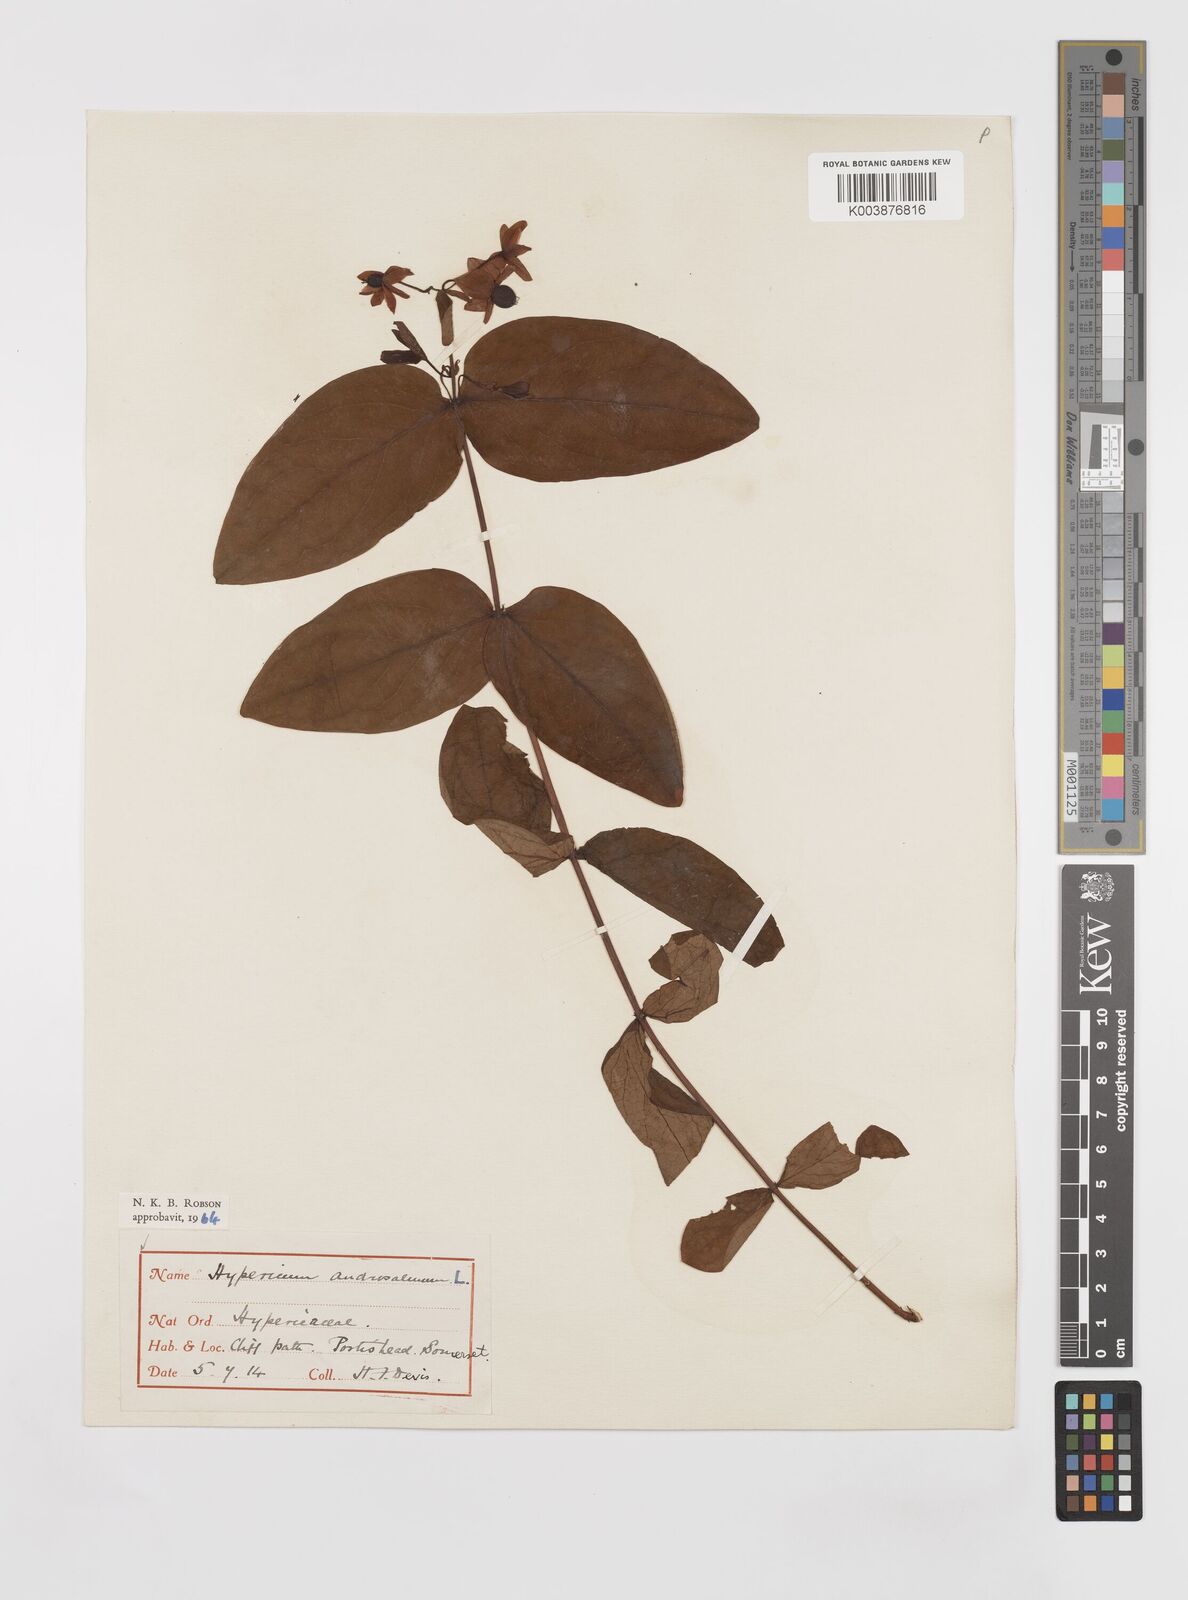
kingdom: Plantae
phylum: Tracheophyta
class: Magnoliopsida
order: Malpighiales
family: Hypericaceae
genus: Hypericum
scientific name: Hypericum androsaemum
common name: Sweet-amber
